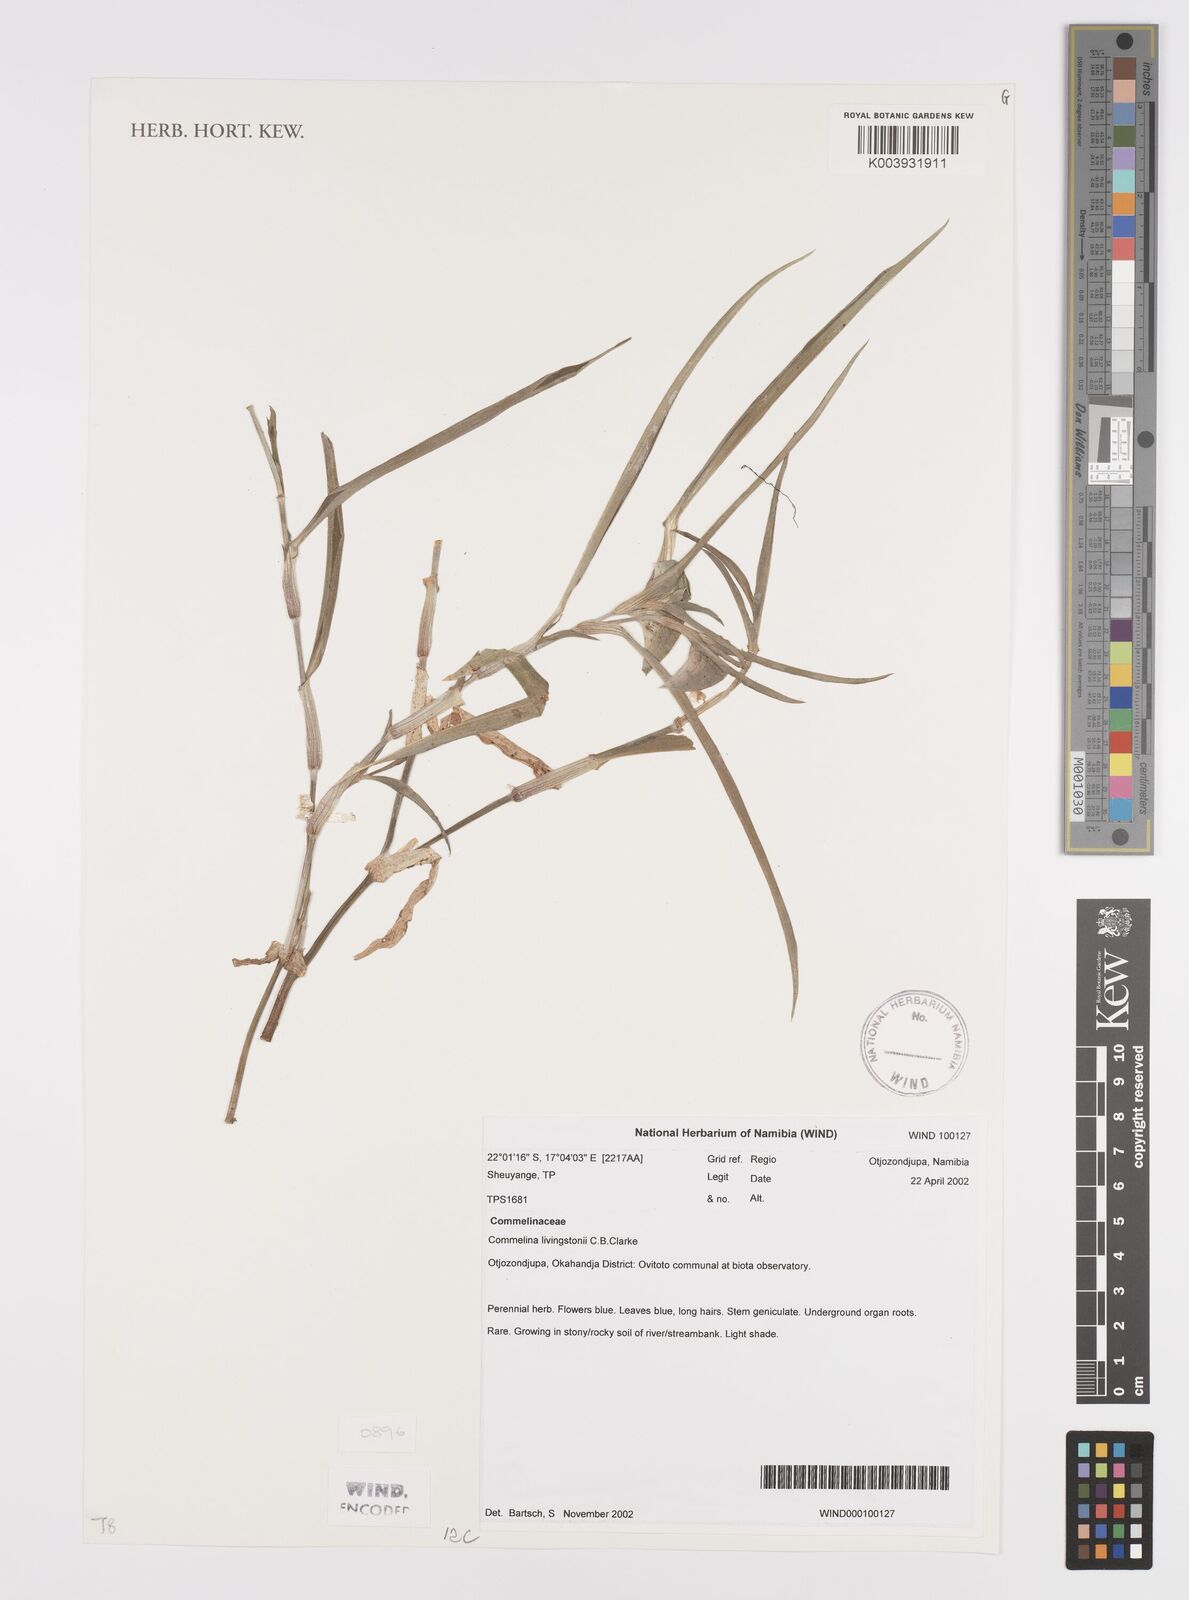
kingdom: Plantae
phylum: Tracheophyta
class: Liliopsida
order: Commelinales
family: Commelinaceae
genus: Commelina
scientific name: Commelina erecta
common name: Blousel blommetjie
